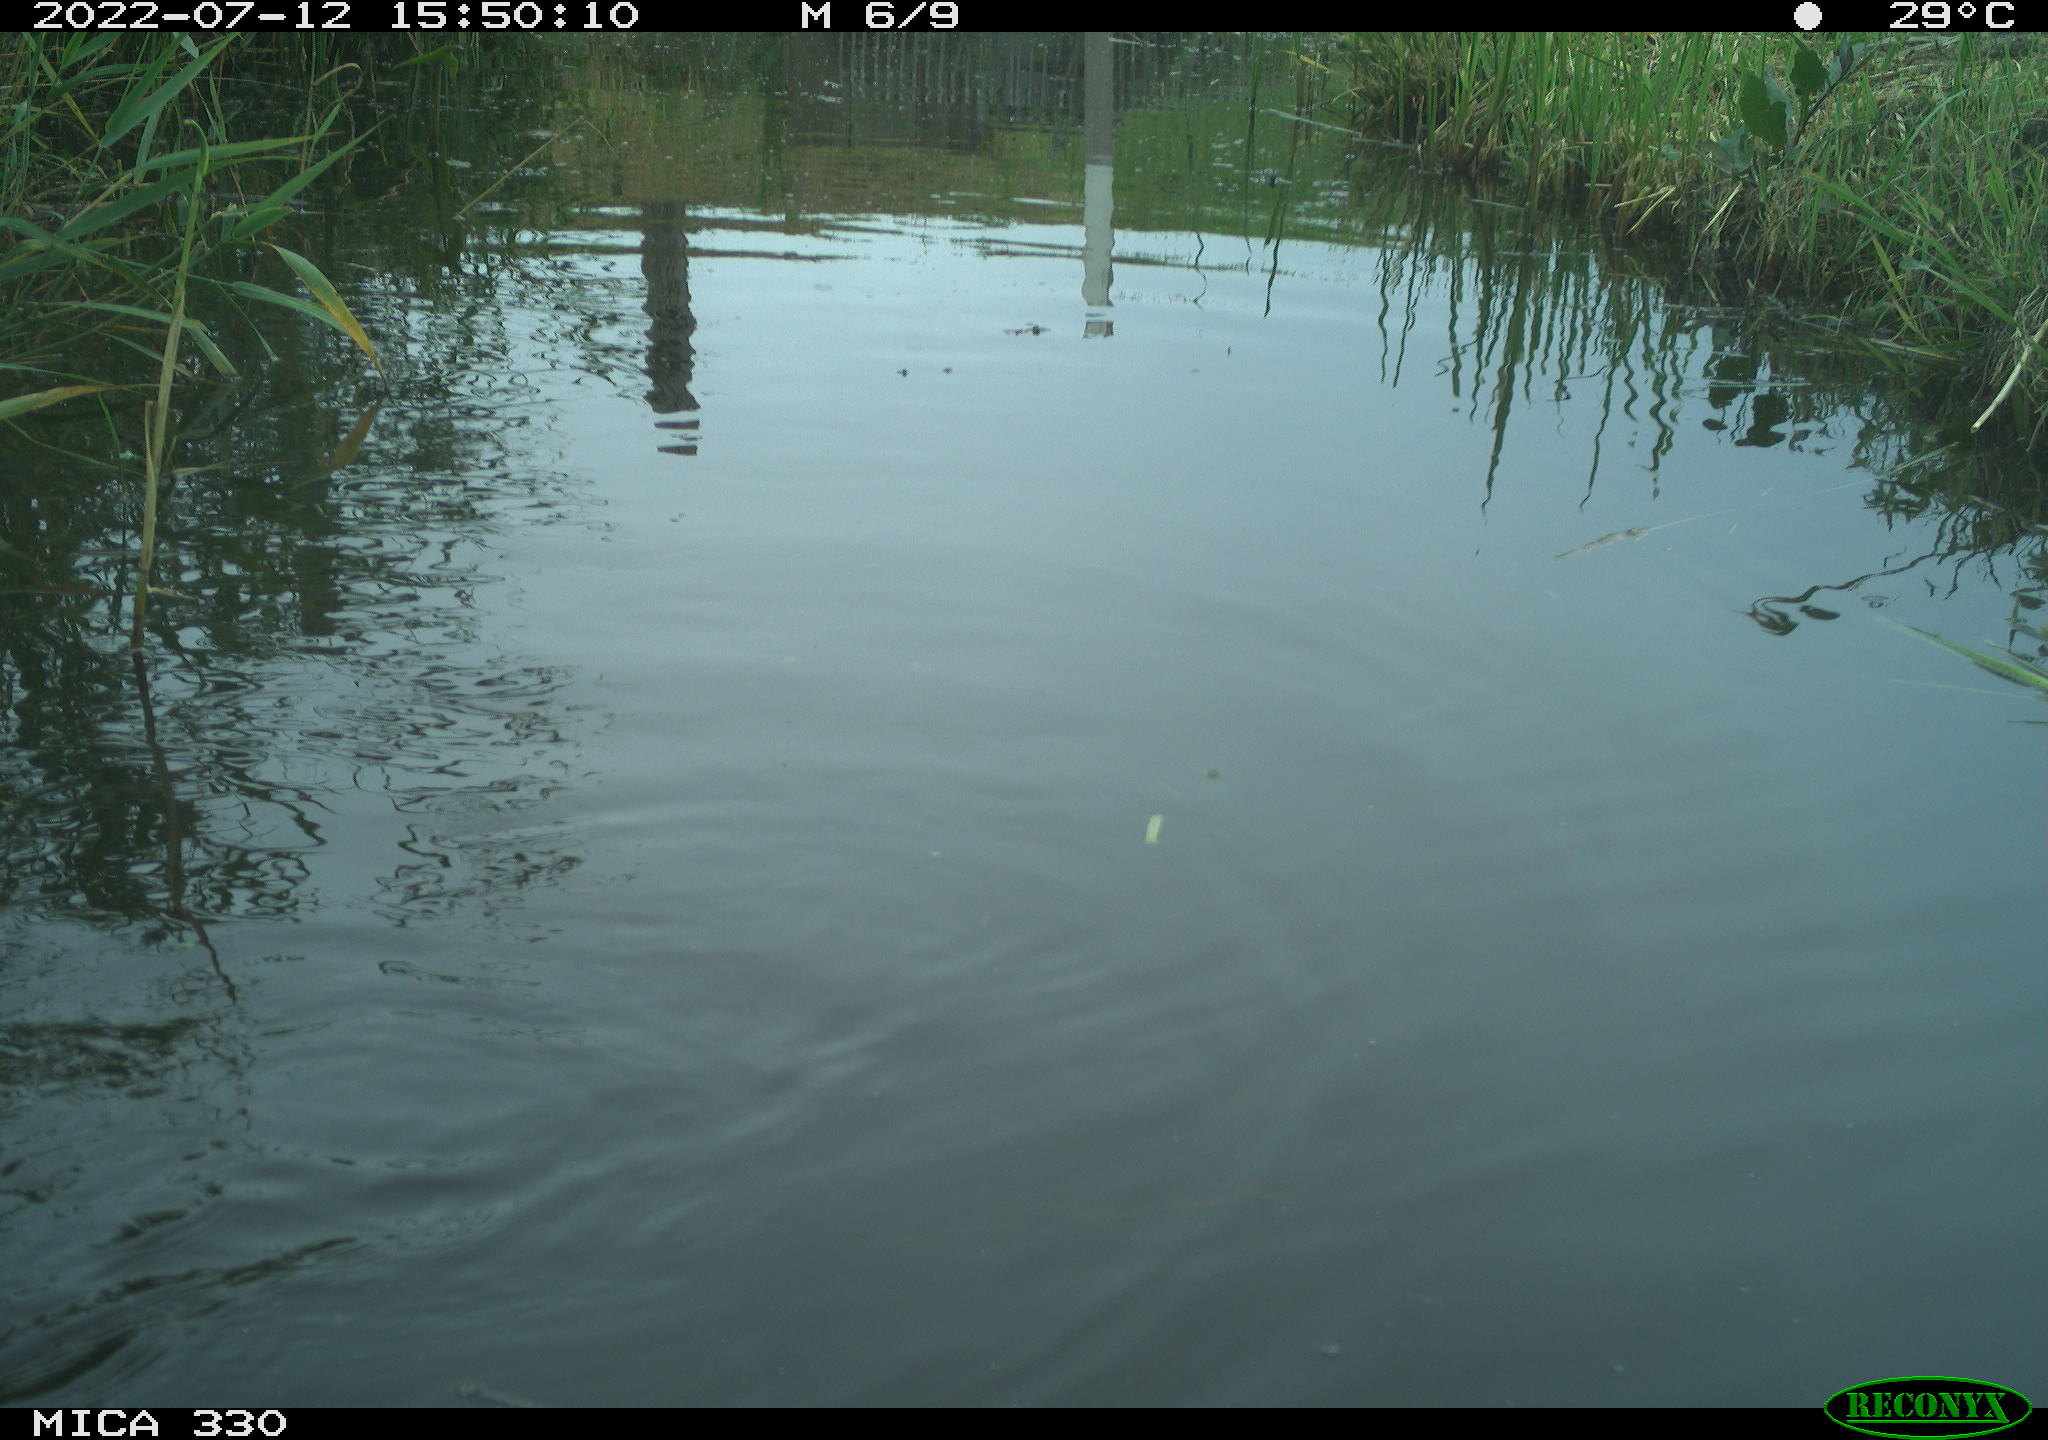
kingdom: Animalia
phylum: Chordata
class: Aves
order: Anseriformes
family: Anatidae
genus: Mareca
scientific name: Mareca strepera
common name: Gadwall
